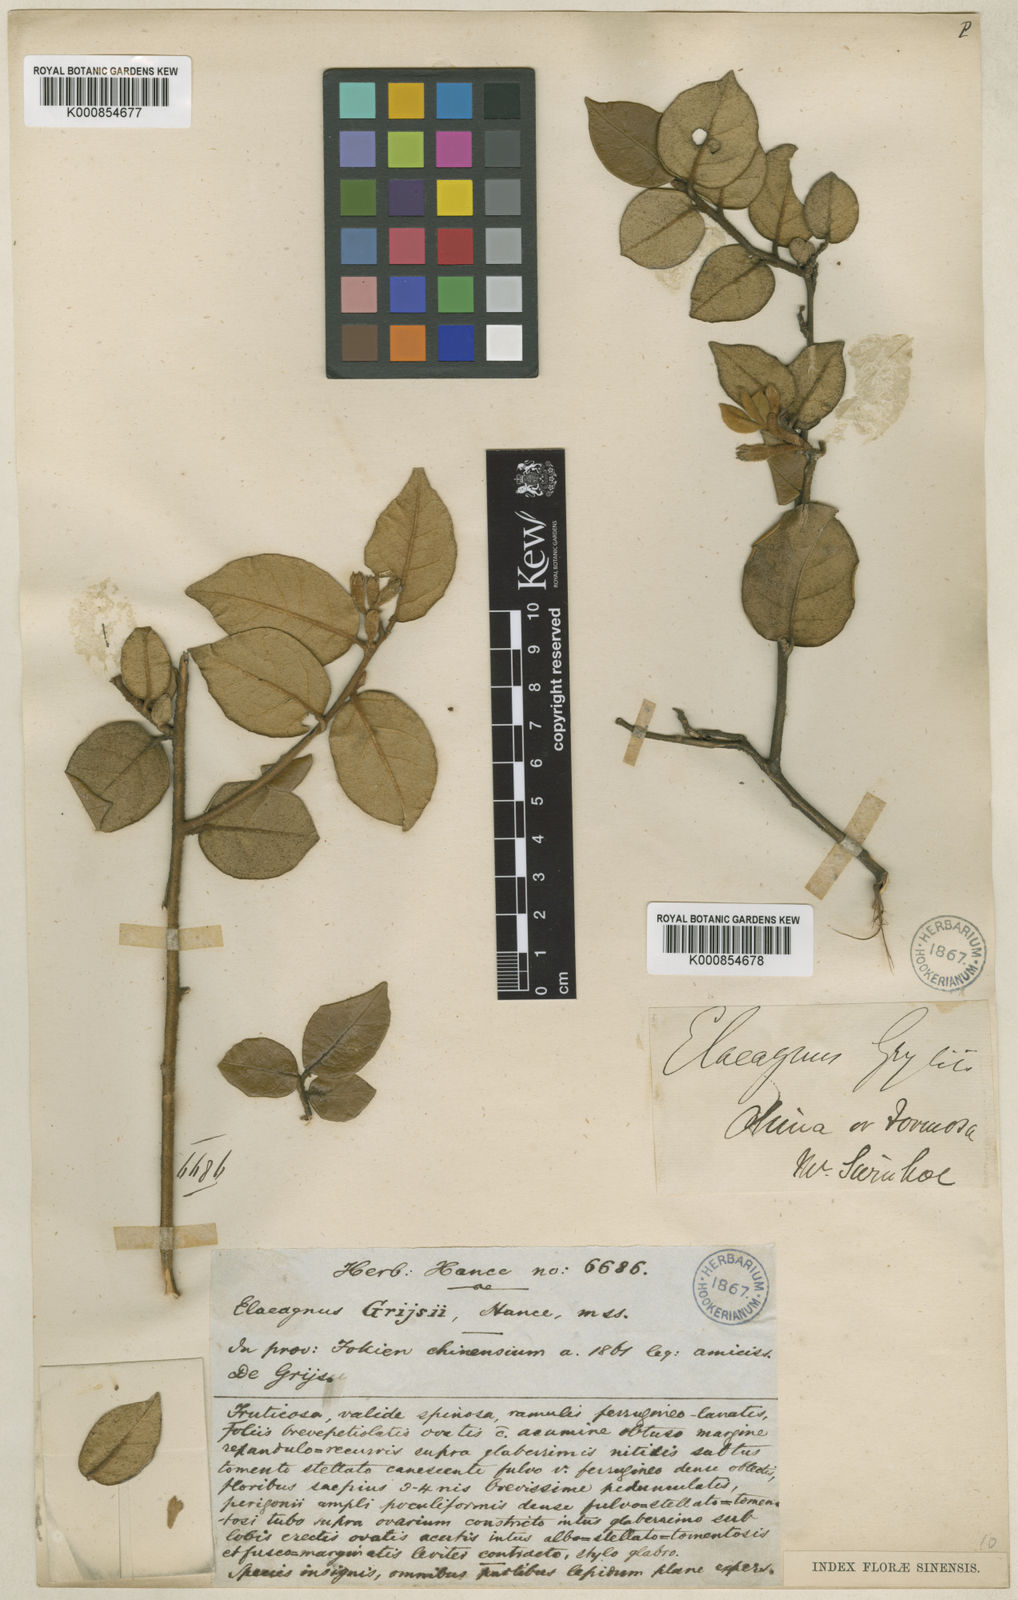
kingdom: Plantae
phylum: Tracheophyta
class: Magnoliopsida
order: Rosales
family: Elaeagnaceae
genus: Elaeagnus
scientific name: Elaeagnus grijsii
